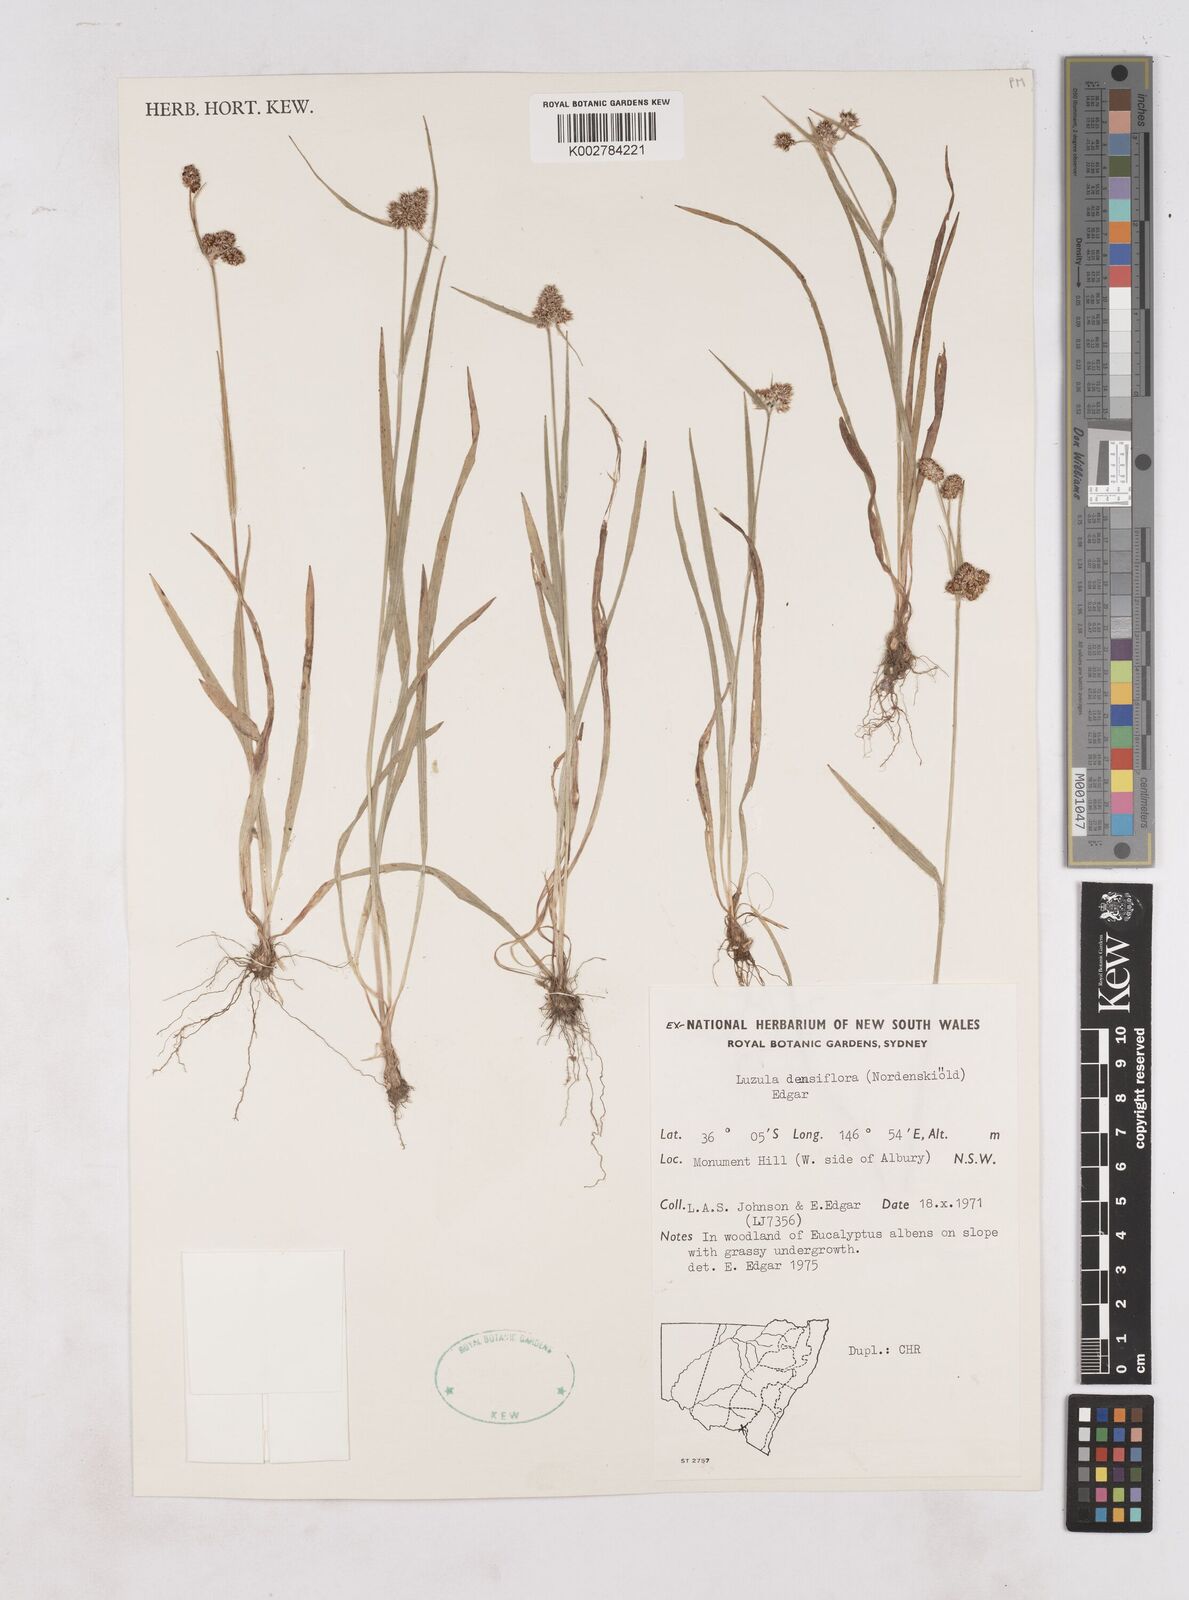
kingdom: Plantae
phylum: Tracheophyta
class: Liliopsida
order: Poales
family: Juncaceae
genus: Luzula
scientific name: Luzula densiflora
